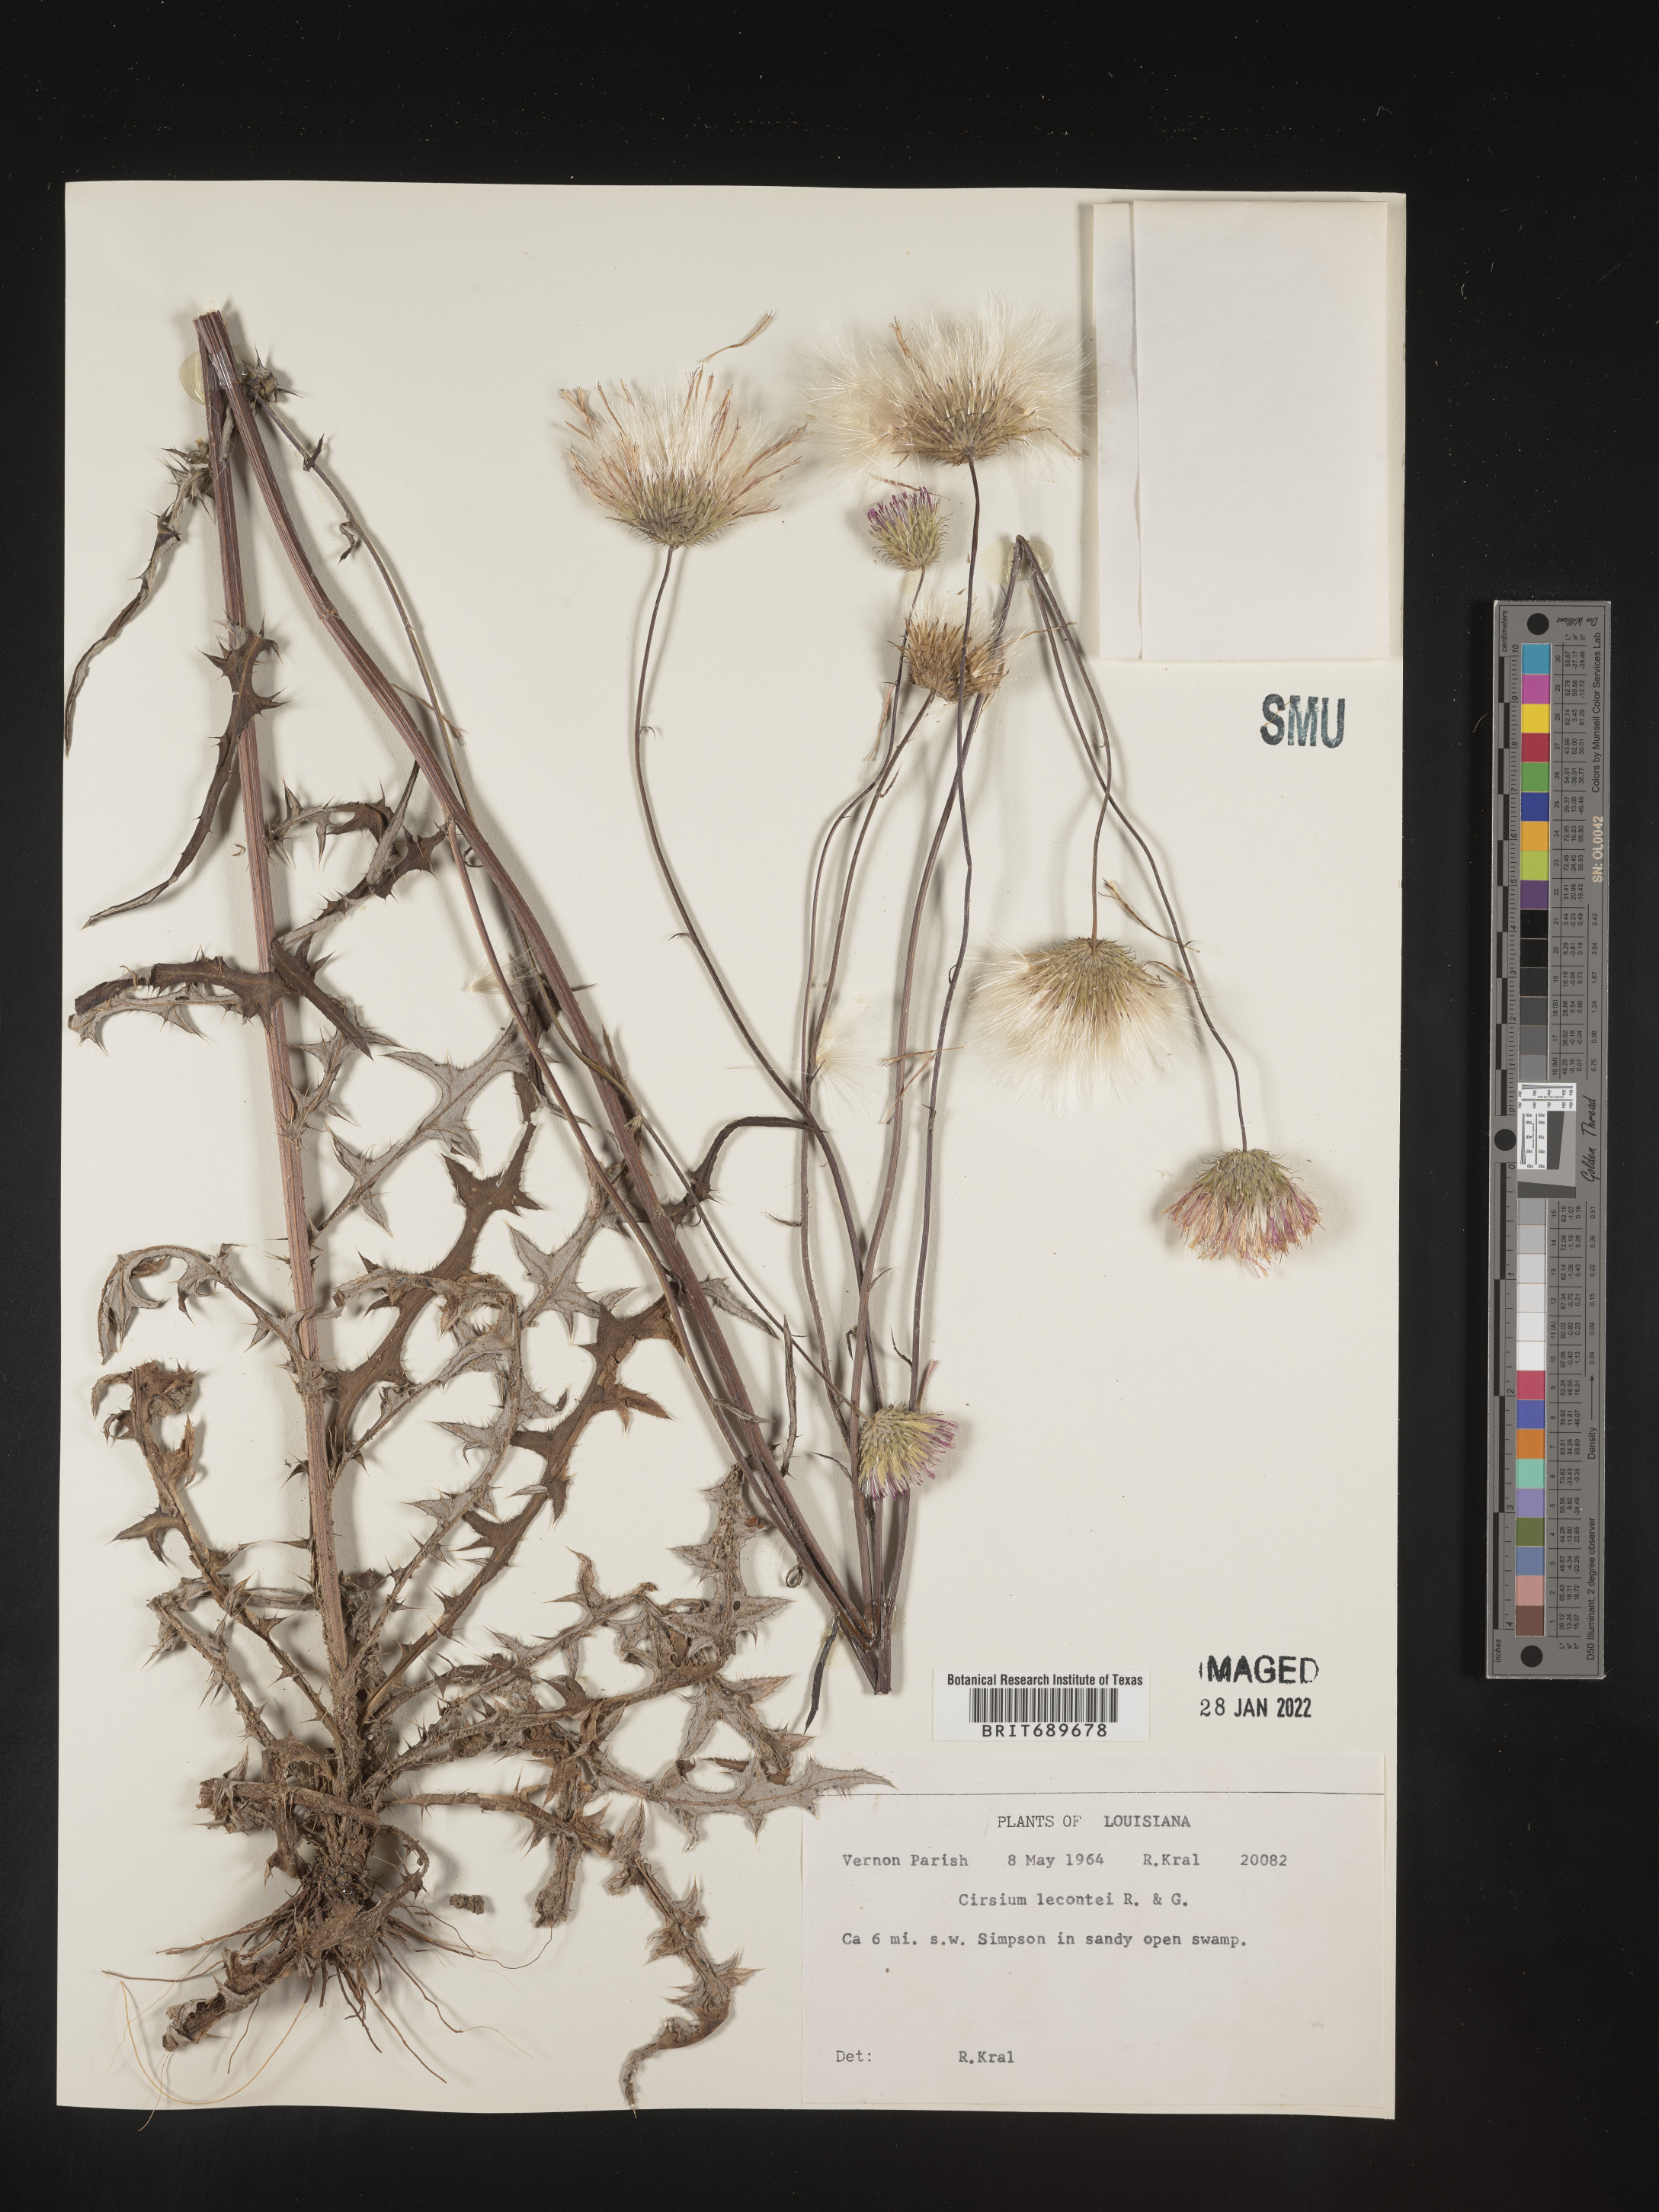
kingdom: Plantae
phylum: Tracheophyta
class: Magnoliopsida
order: Asterales
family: Asteraceae
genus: Cirsium
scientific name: Cirsium lecontei
